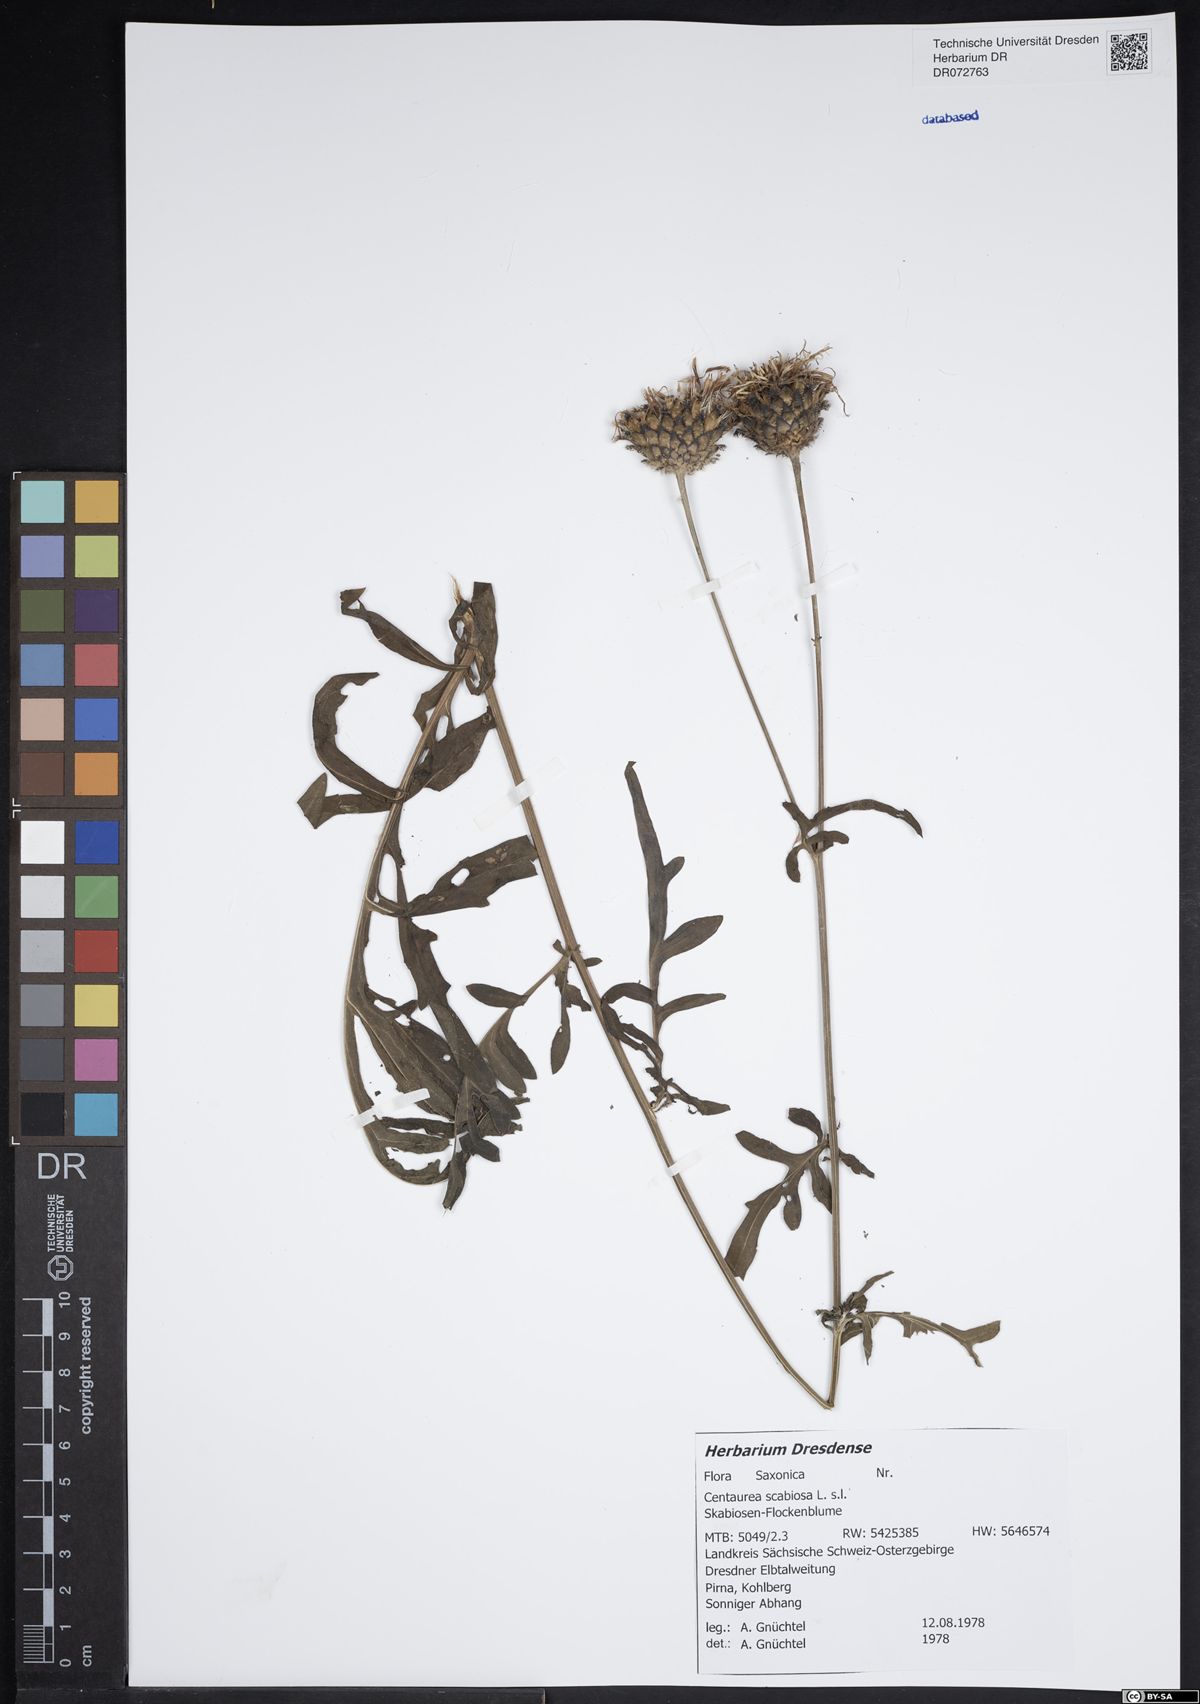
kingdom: Plantae
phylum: Tracheophyta
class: Magnoliopsida
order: Asterales
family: Asteraceae
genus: Centaurea
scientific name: Centaurea scabiosa
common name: Greater knapweed
